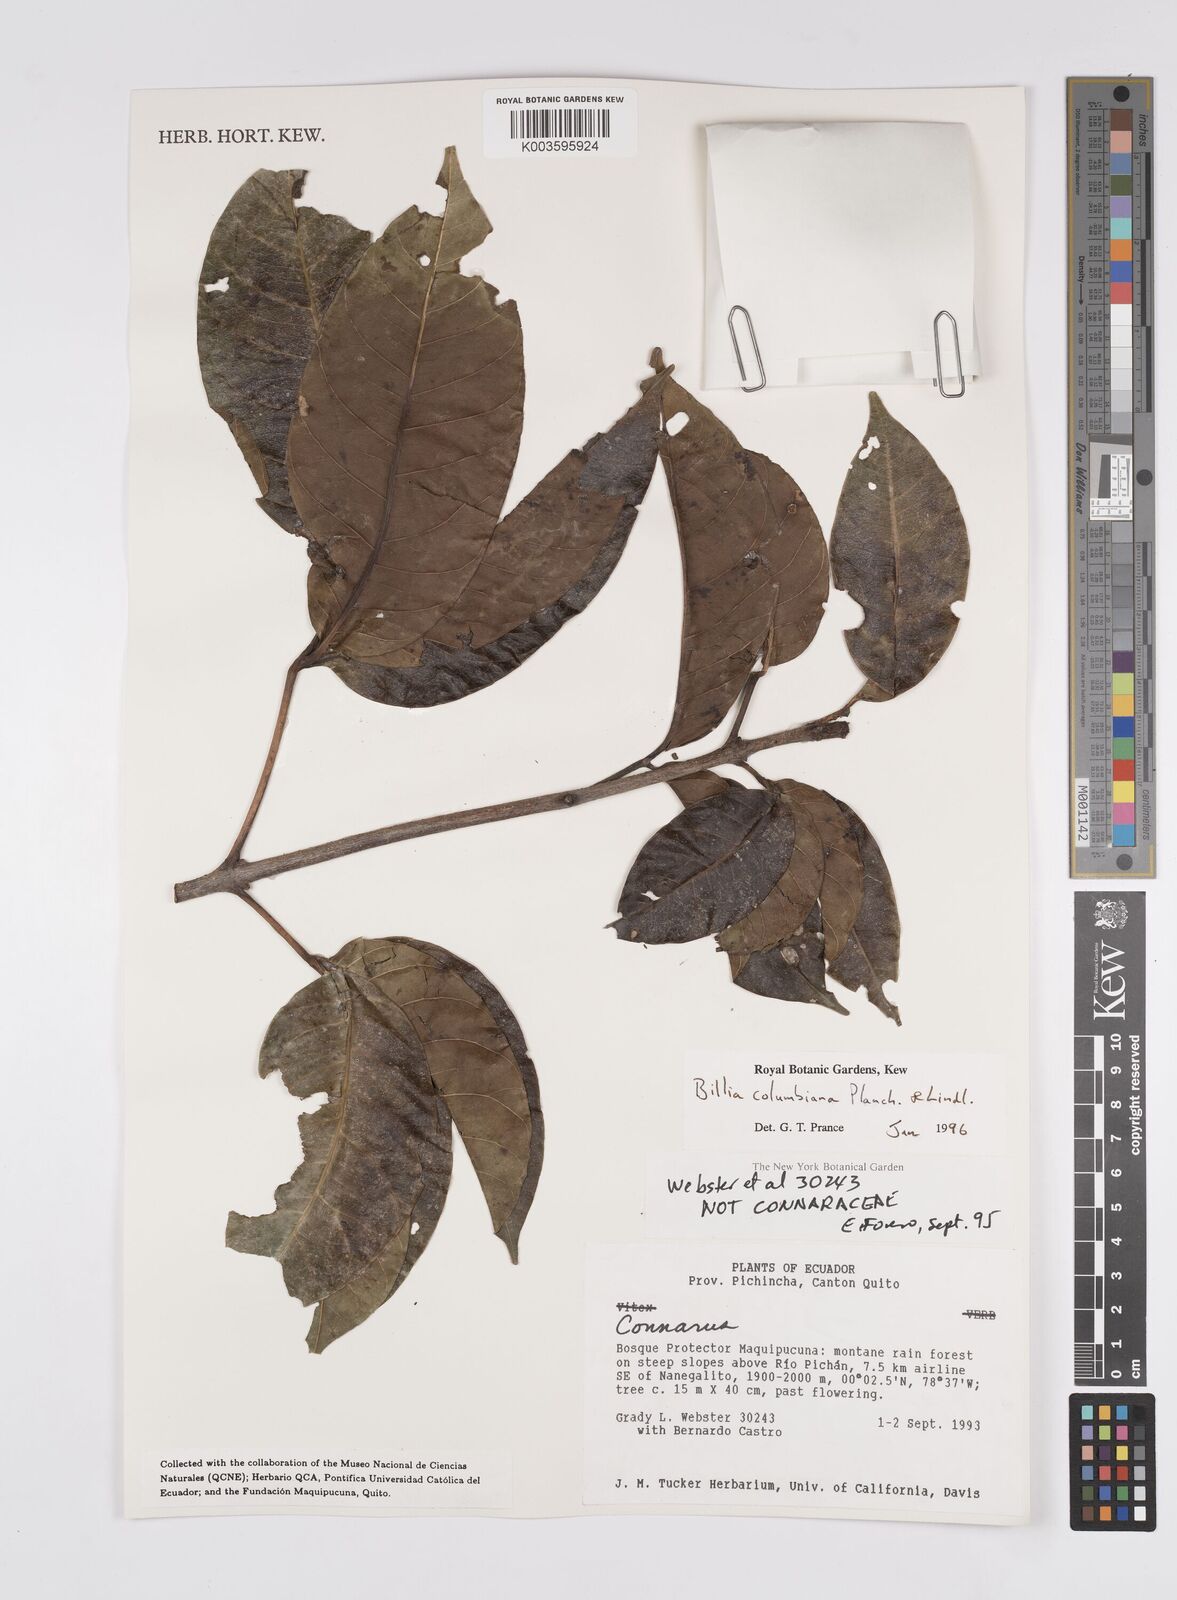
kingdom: Plantae
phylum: Tracheophyta
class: Magnoliopsida
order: Sapindales
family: Sapindaceae
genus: Billia
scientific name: Billia
